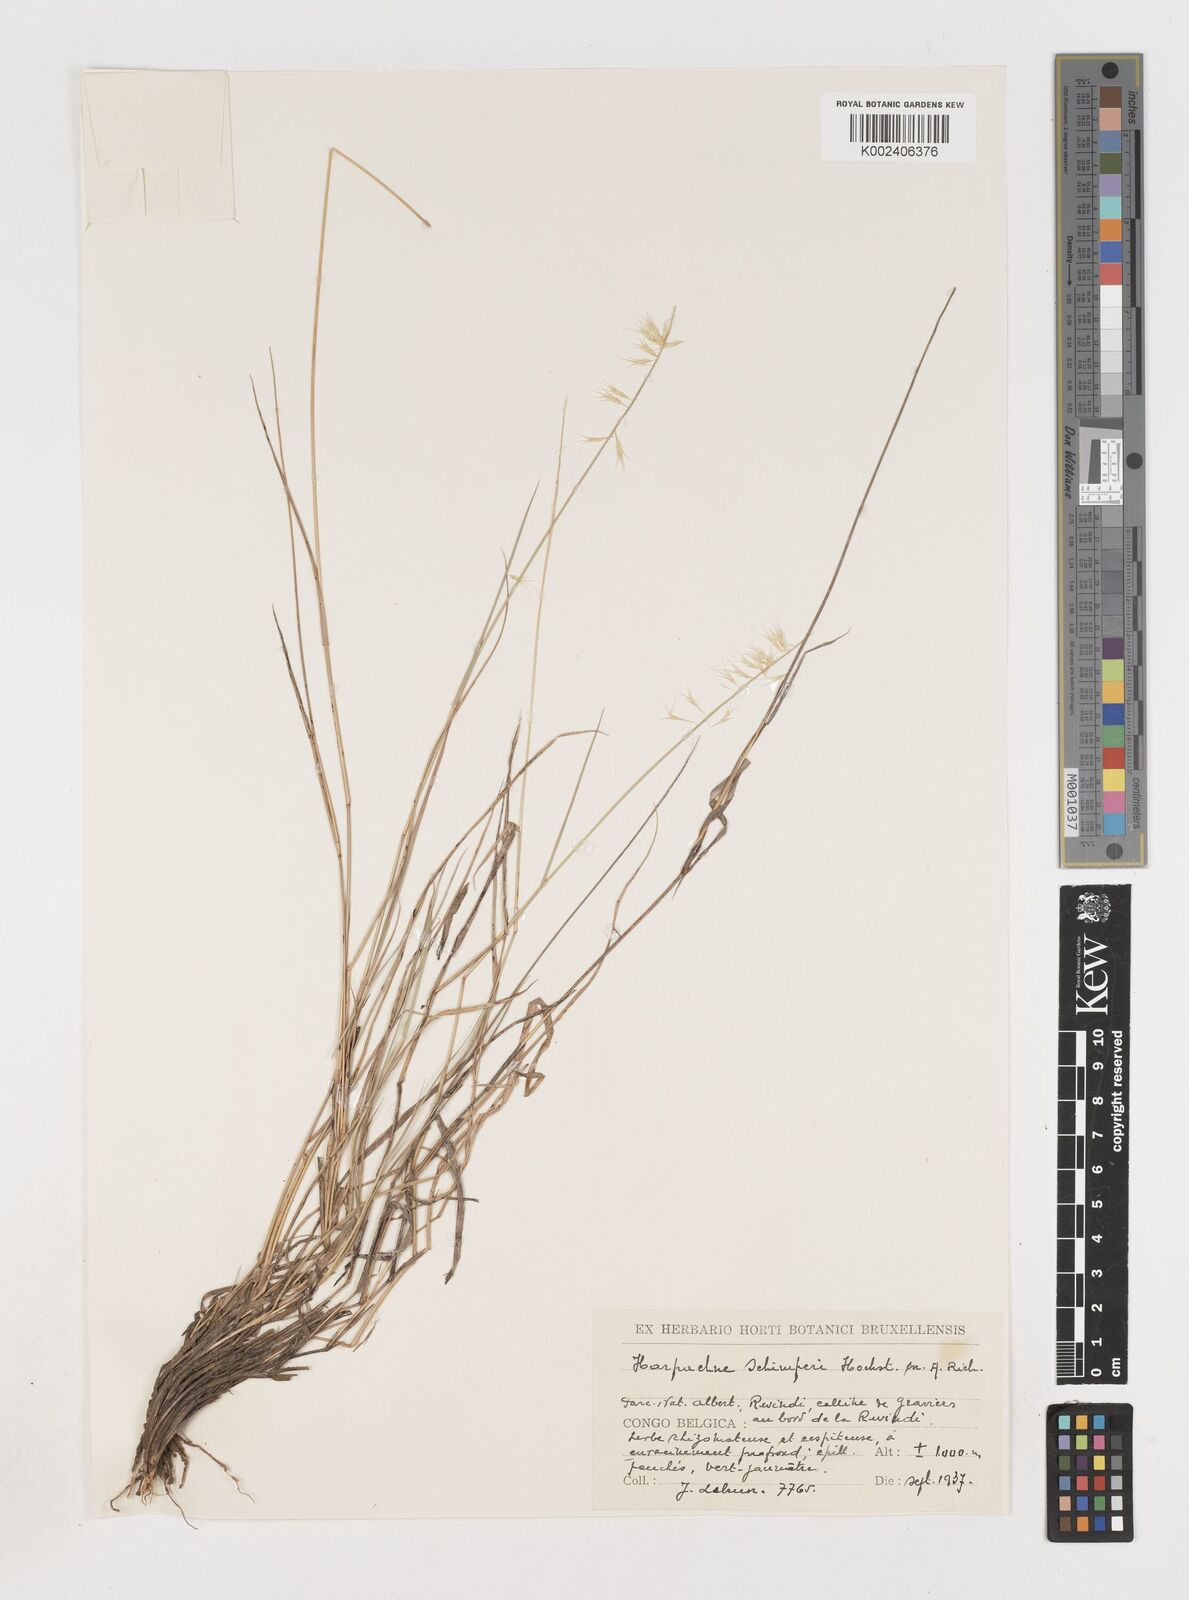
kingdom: Plantae
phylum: Tracheophyta
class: Liliopsida
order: Poales
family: Poaceae
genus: Harpachne
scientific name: Harpachne schimperi
